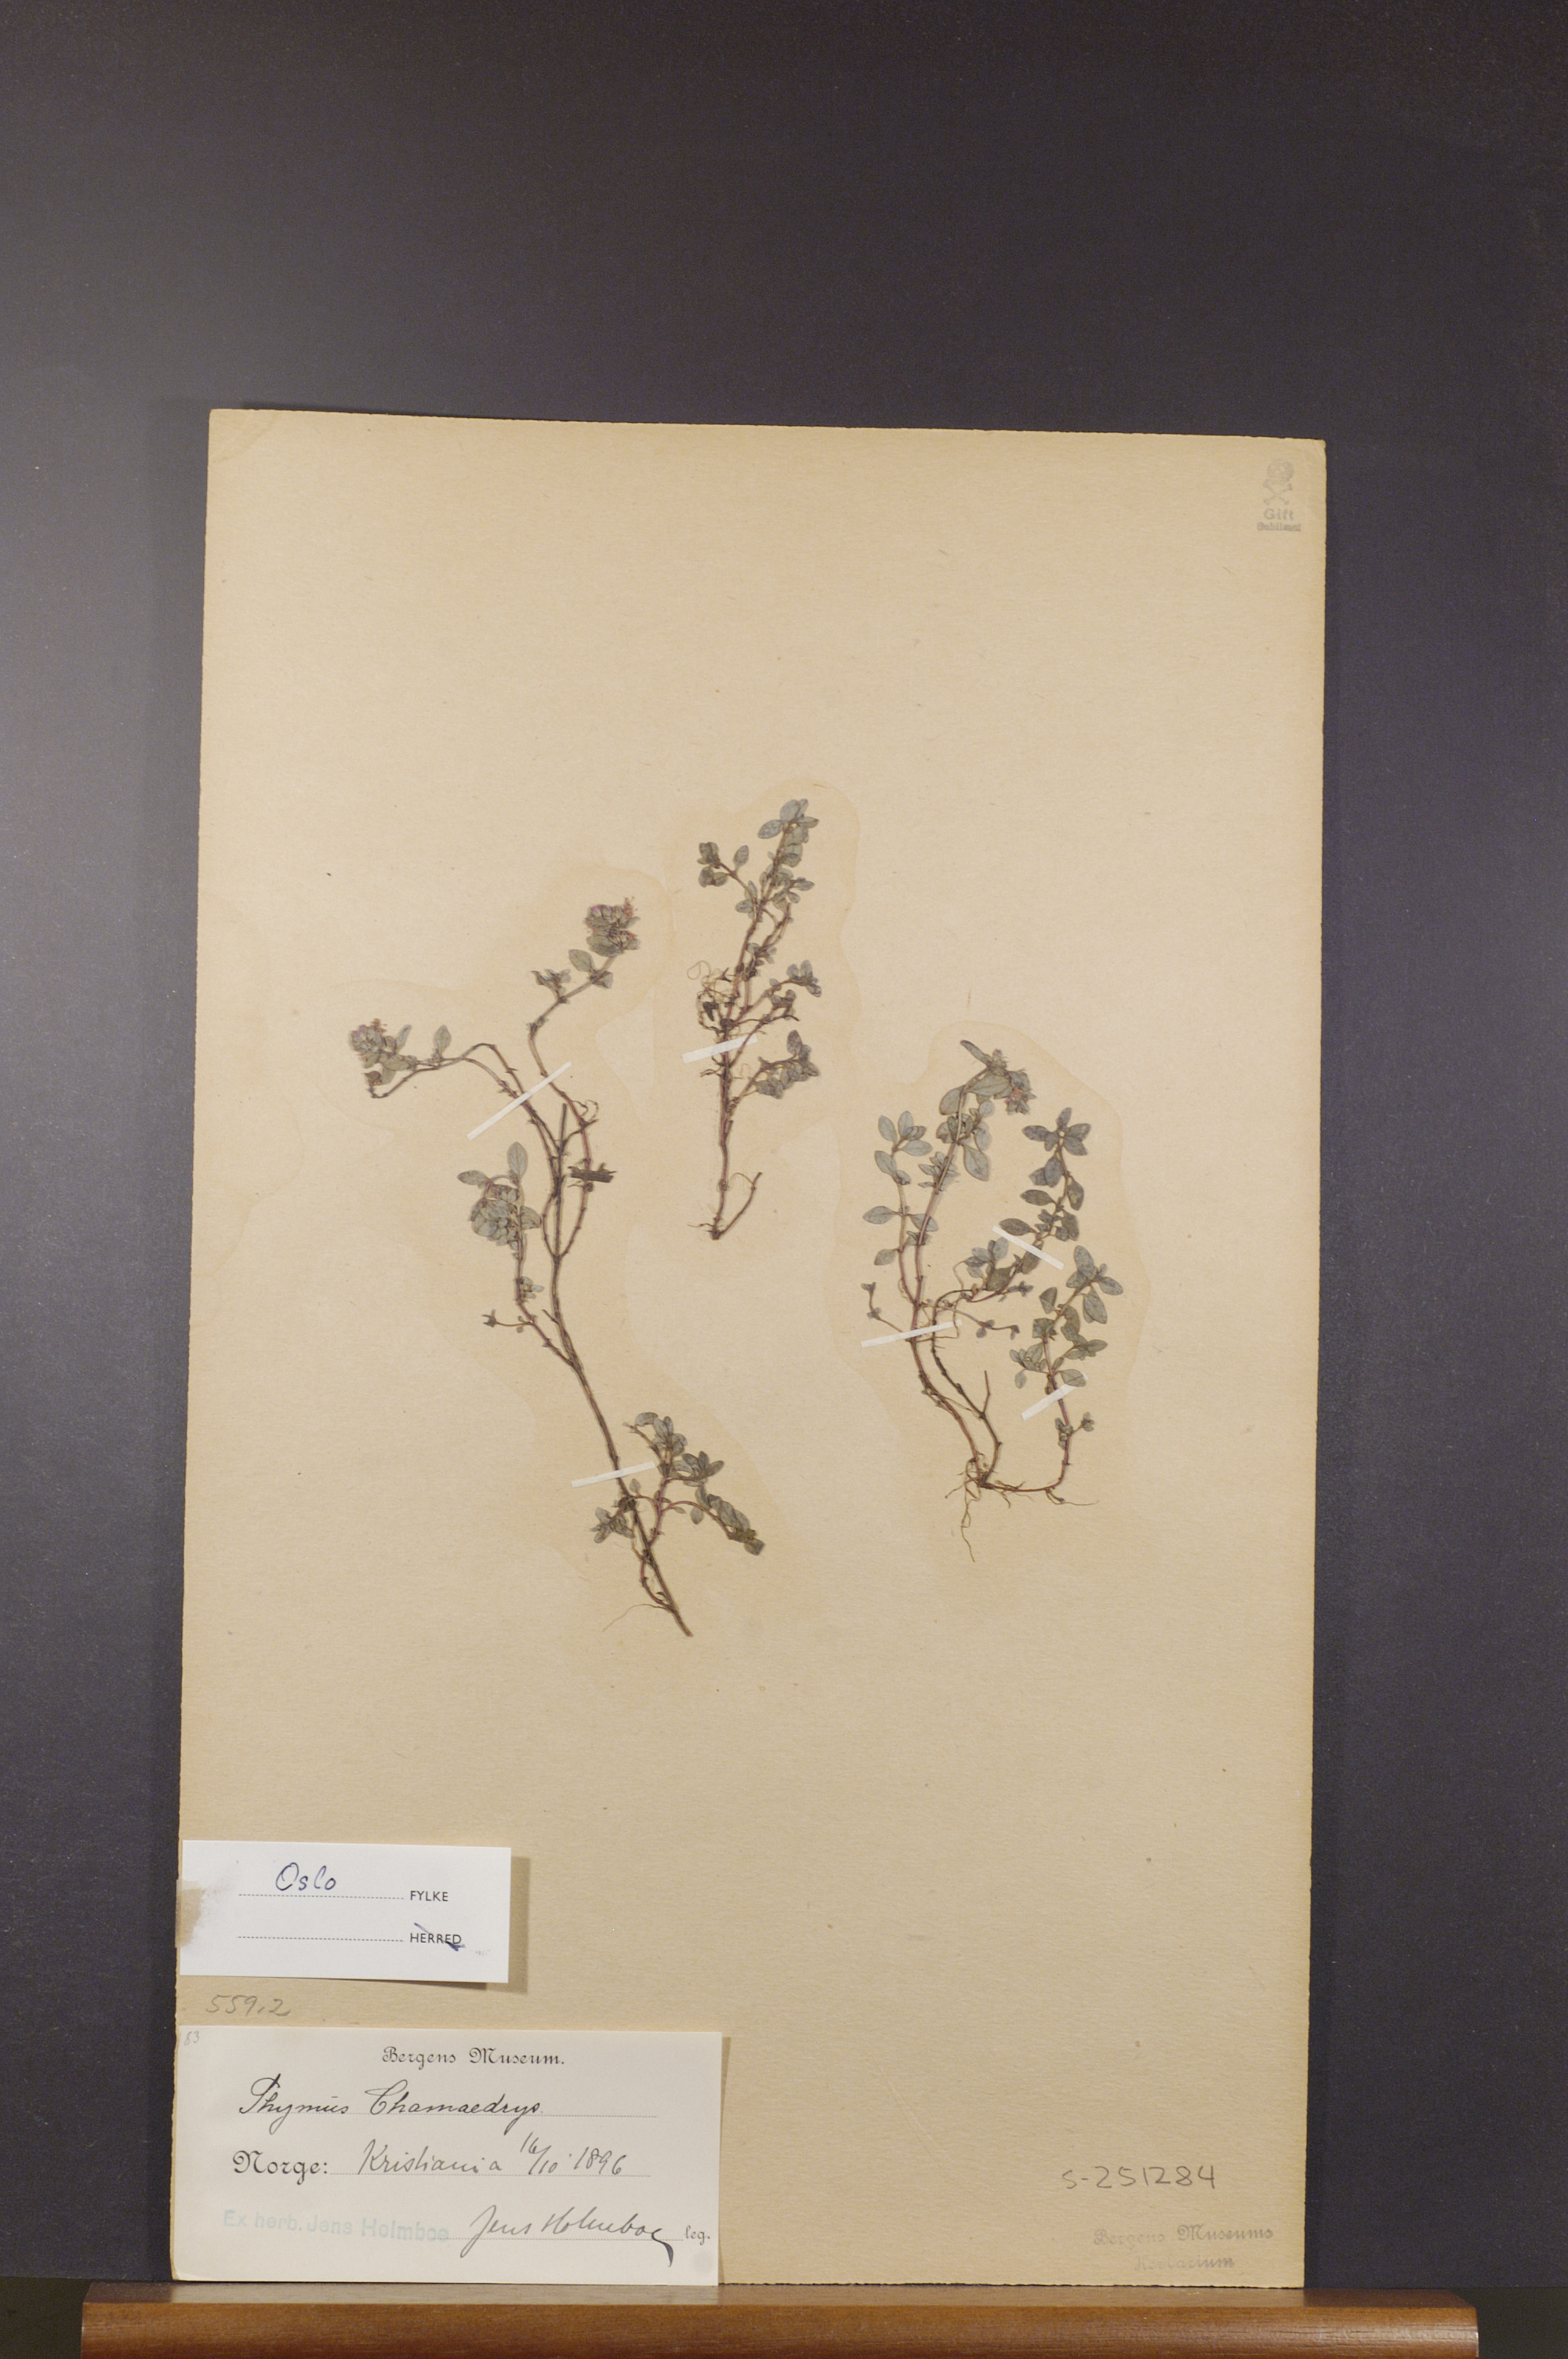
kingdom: Plantae
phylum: Tracheophyta
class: Magnoliopsida
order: Lamiales
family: Lamiaceae
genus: Thymus
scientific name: Thymus pulegioides
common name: Large thyme
